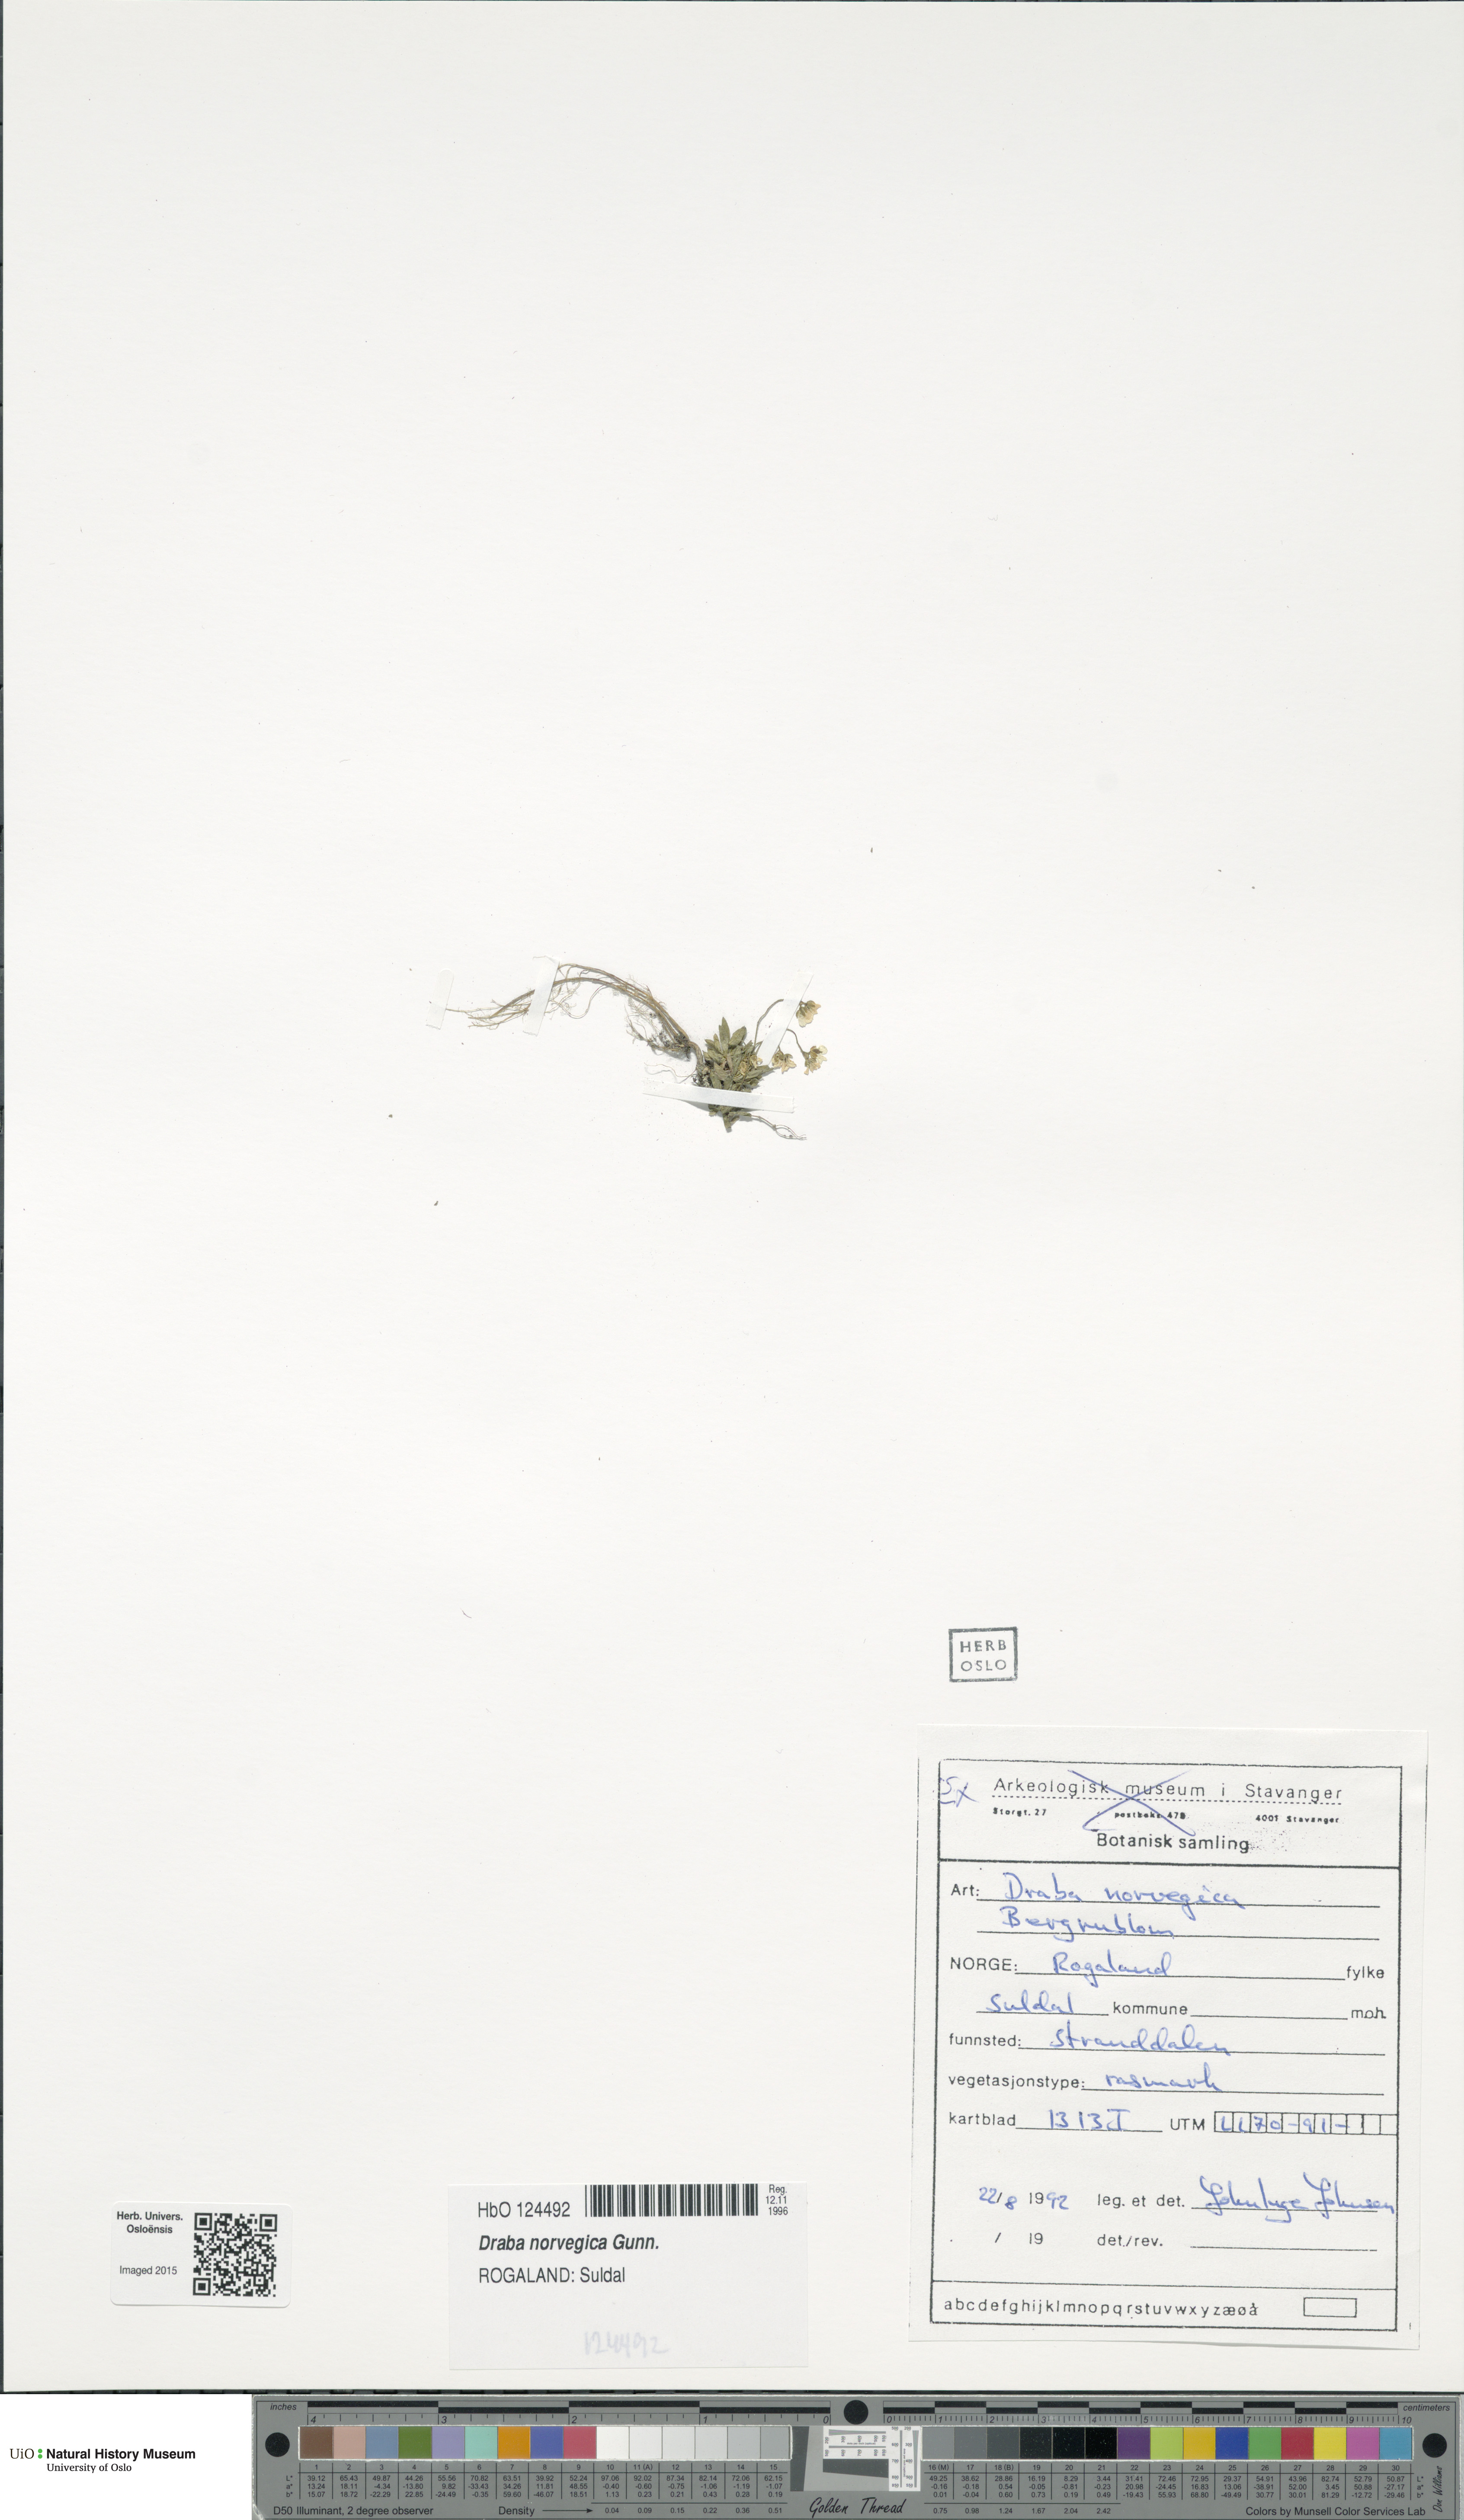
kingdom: Plantae
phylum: Tracheophyta
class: Magnoliopsida
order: Brassicales
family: Brassicaceae
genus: Draba
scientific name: Draba norvegica
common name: Rock whitlowgrass
